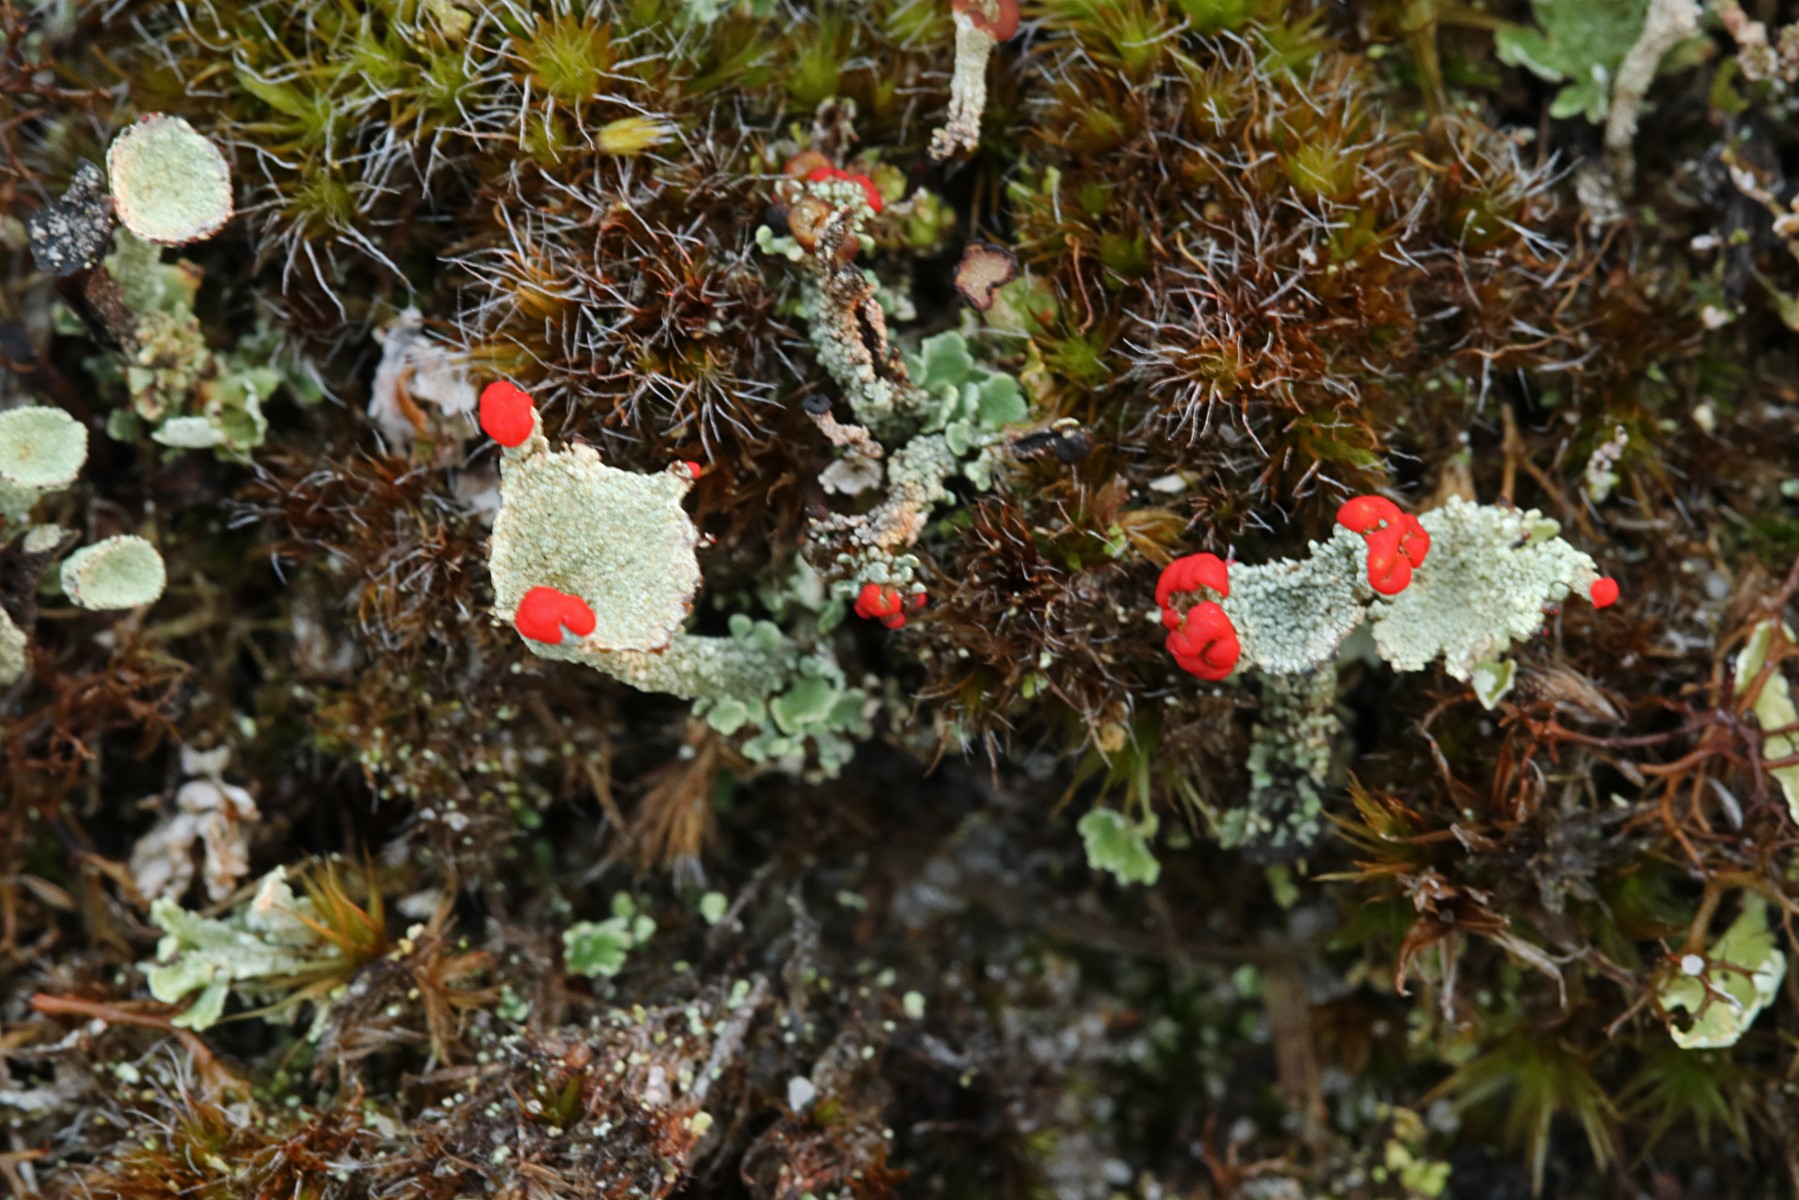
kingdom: Fungi
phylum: Ascomycota
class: Lecanoromycetes
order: Lecanorales
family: Cladoniaceae
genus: Cladonia
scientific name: Cladonia diversa
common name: rød bægerlav
